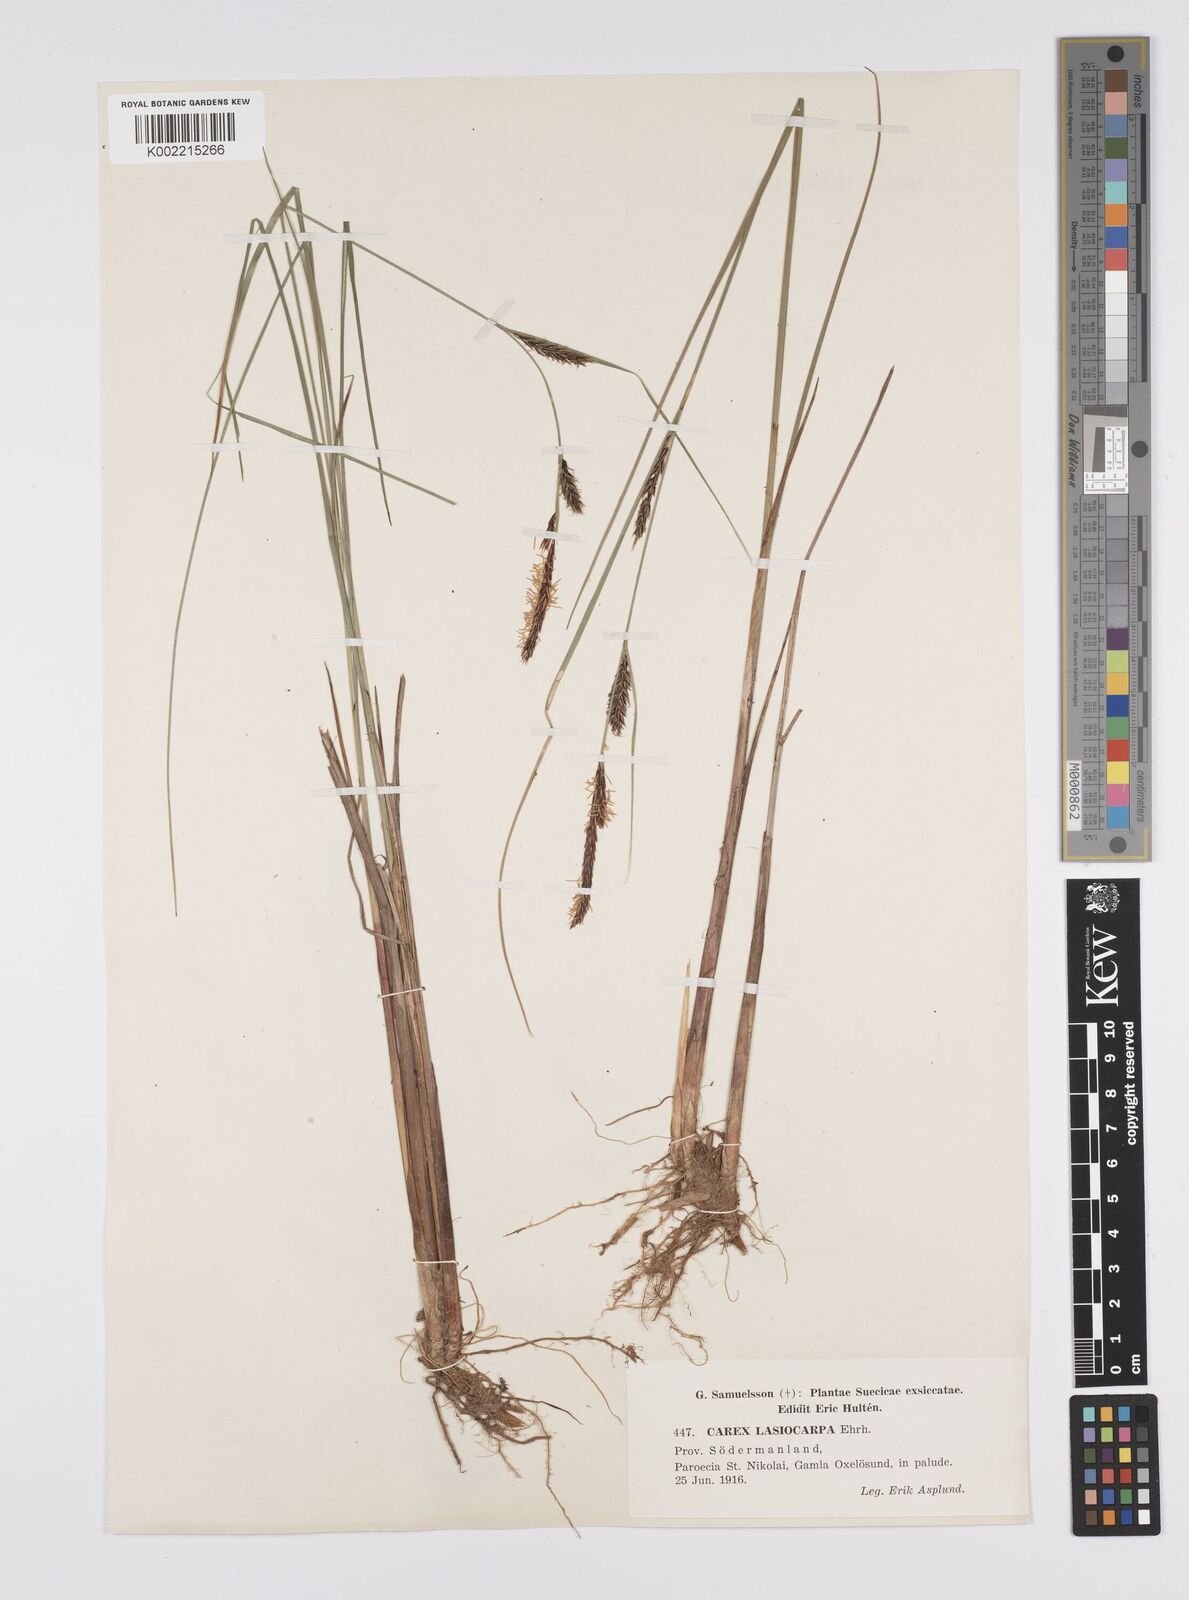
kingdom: Plantae
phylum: Tracheophyta
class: Liliopsida
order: Poales
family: Cyperaceae
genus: Carex
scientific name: Carex lasiocarpa
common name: Slender sedge
